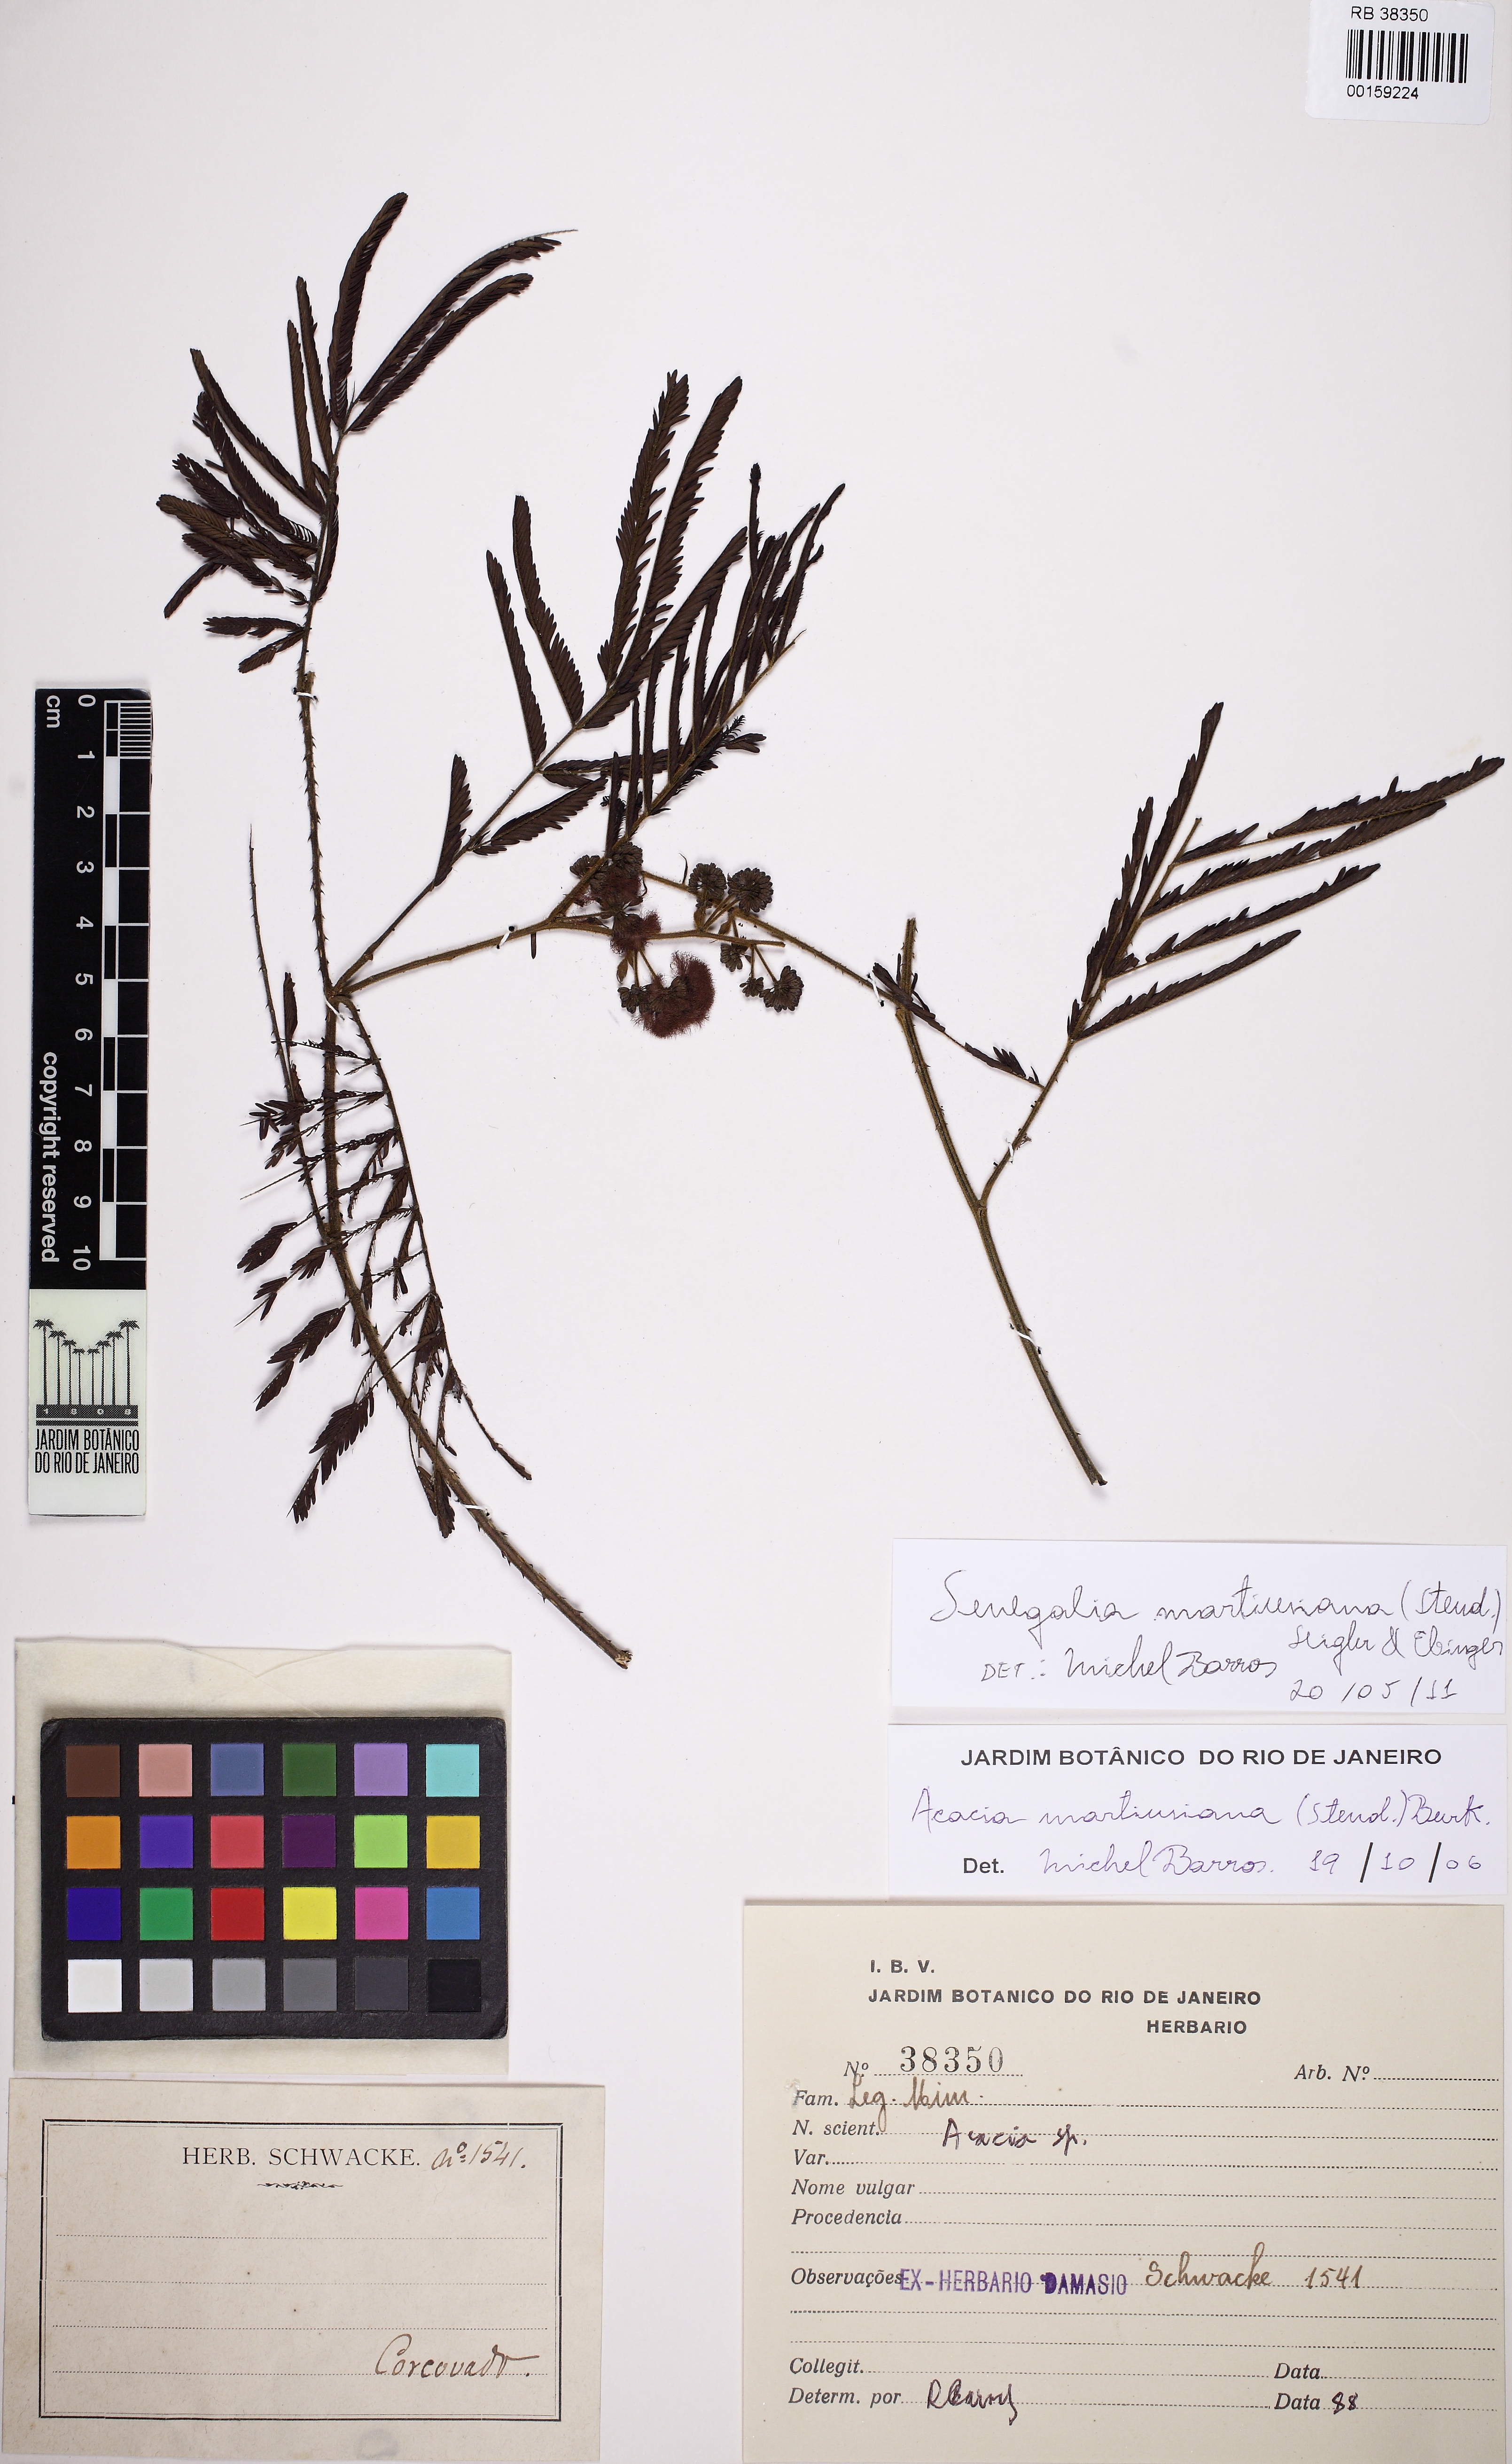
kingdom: Plantae
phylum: Tracheophyta
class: Magnoliopsida
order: Fabales
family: Fabaceae
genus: Senegalia
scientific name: Senegalia martiusiana
